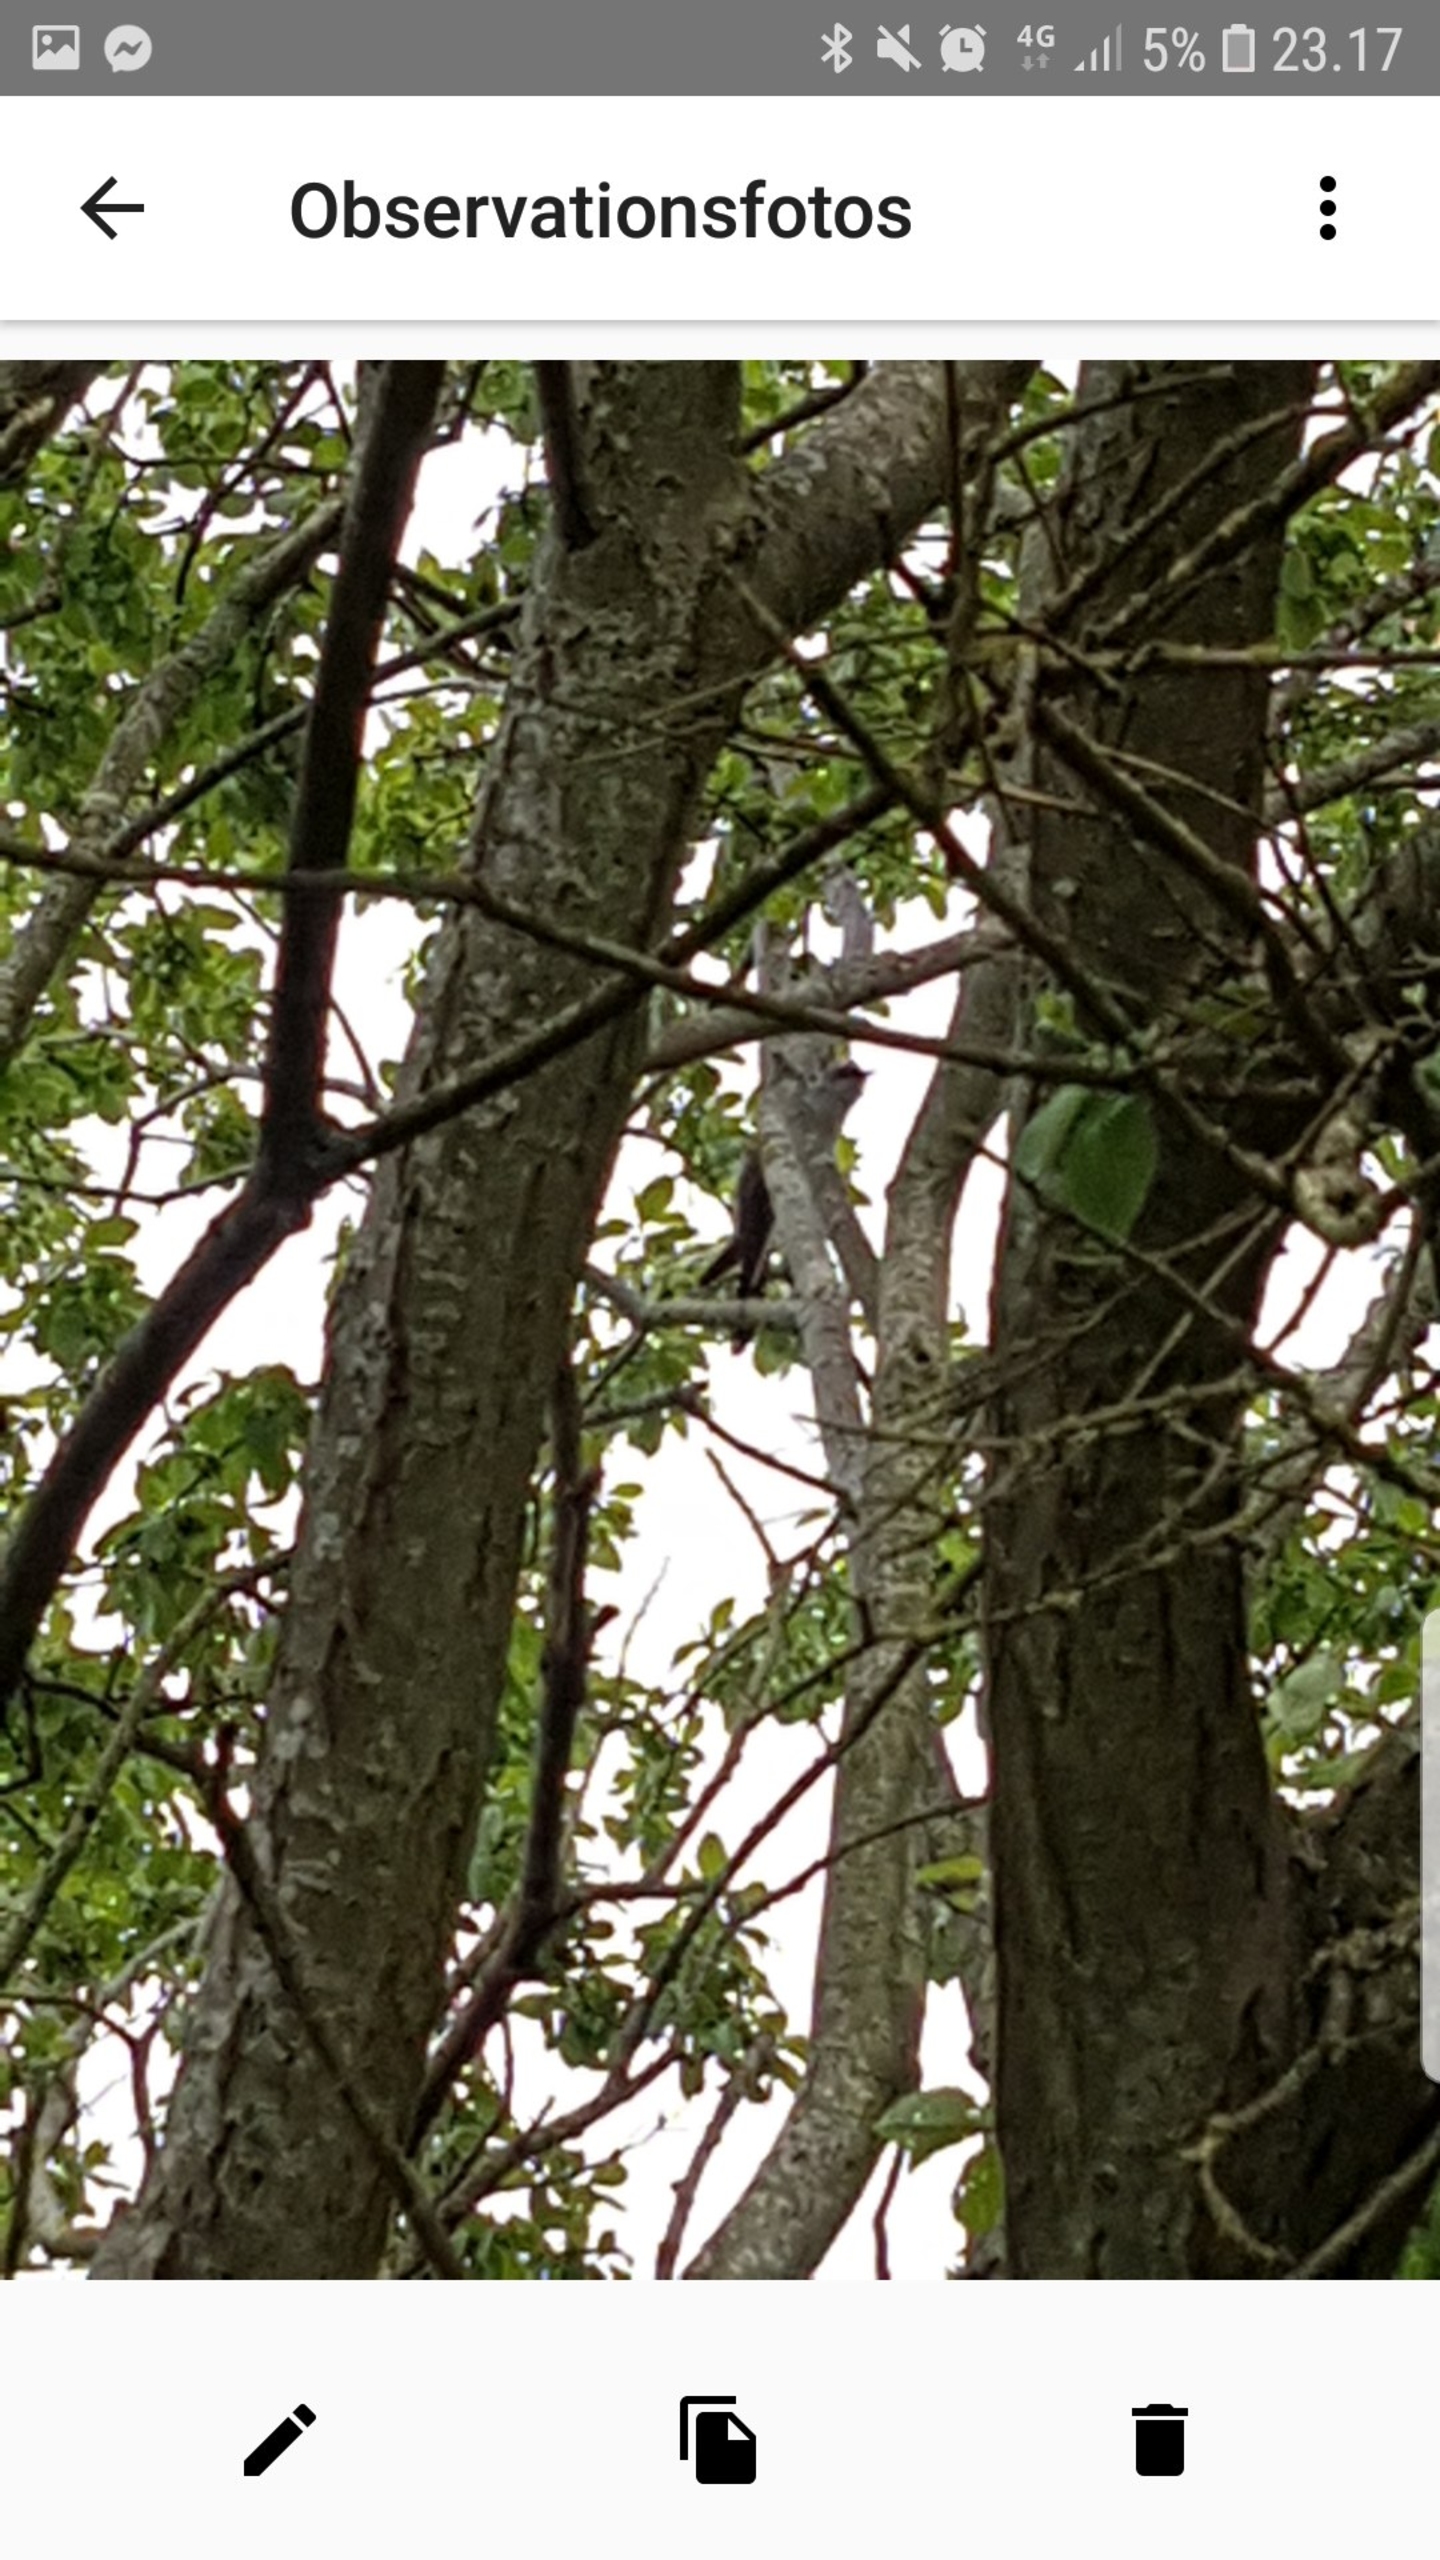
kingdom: Animalia
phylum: Chordata
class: Aves
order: Cuculiformes
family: Cuculidae
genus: Cuculus
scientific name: Cuculus canorus
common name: Gøg
